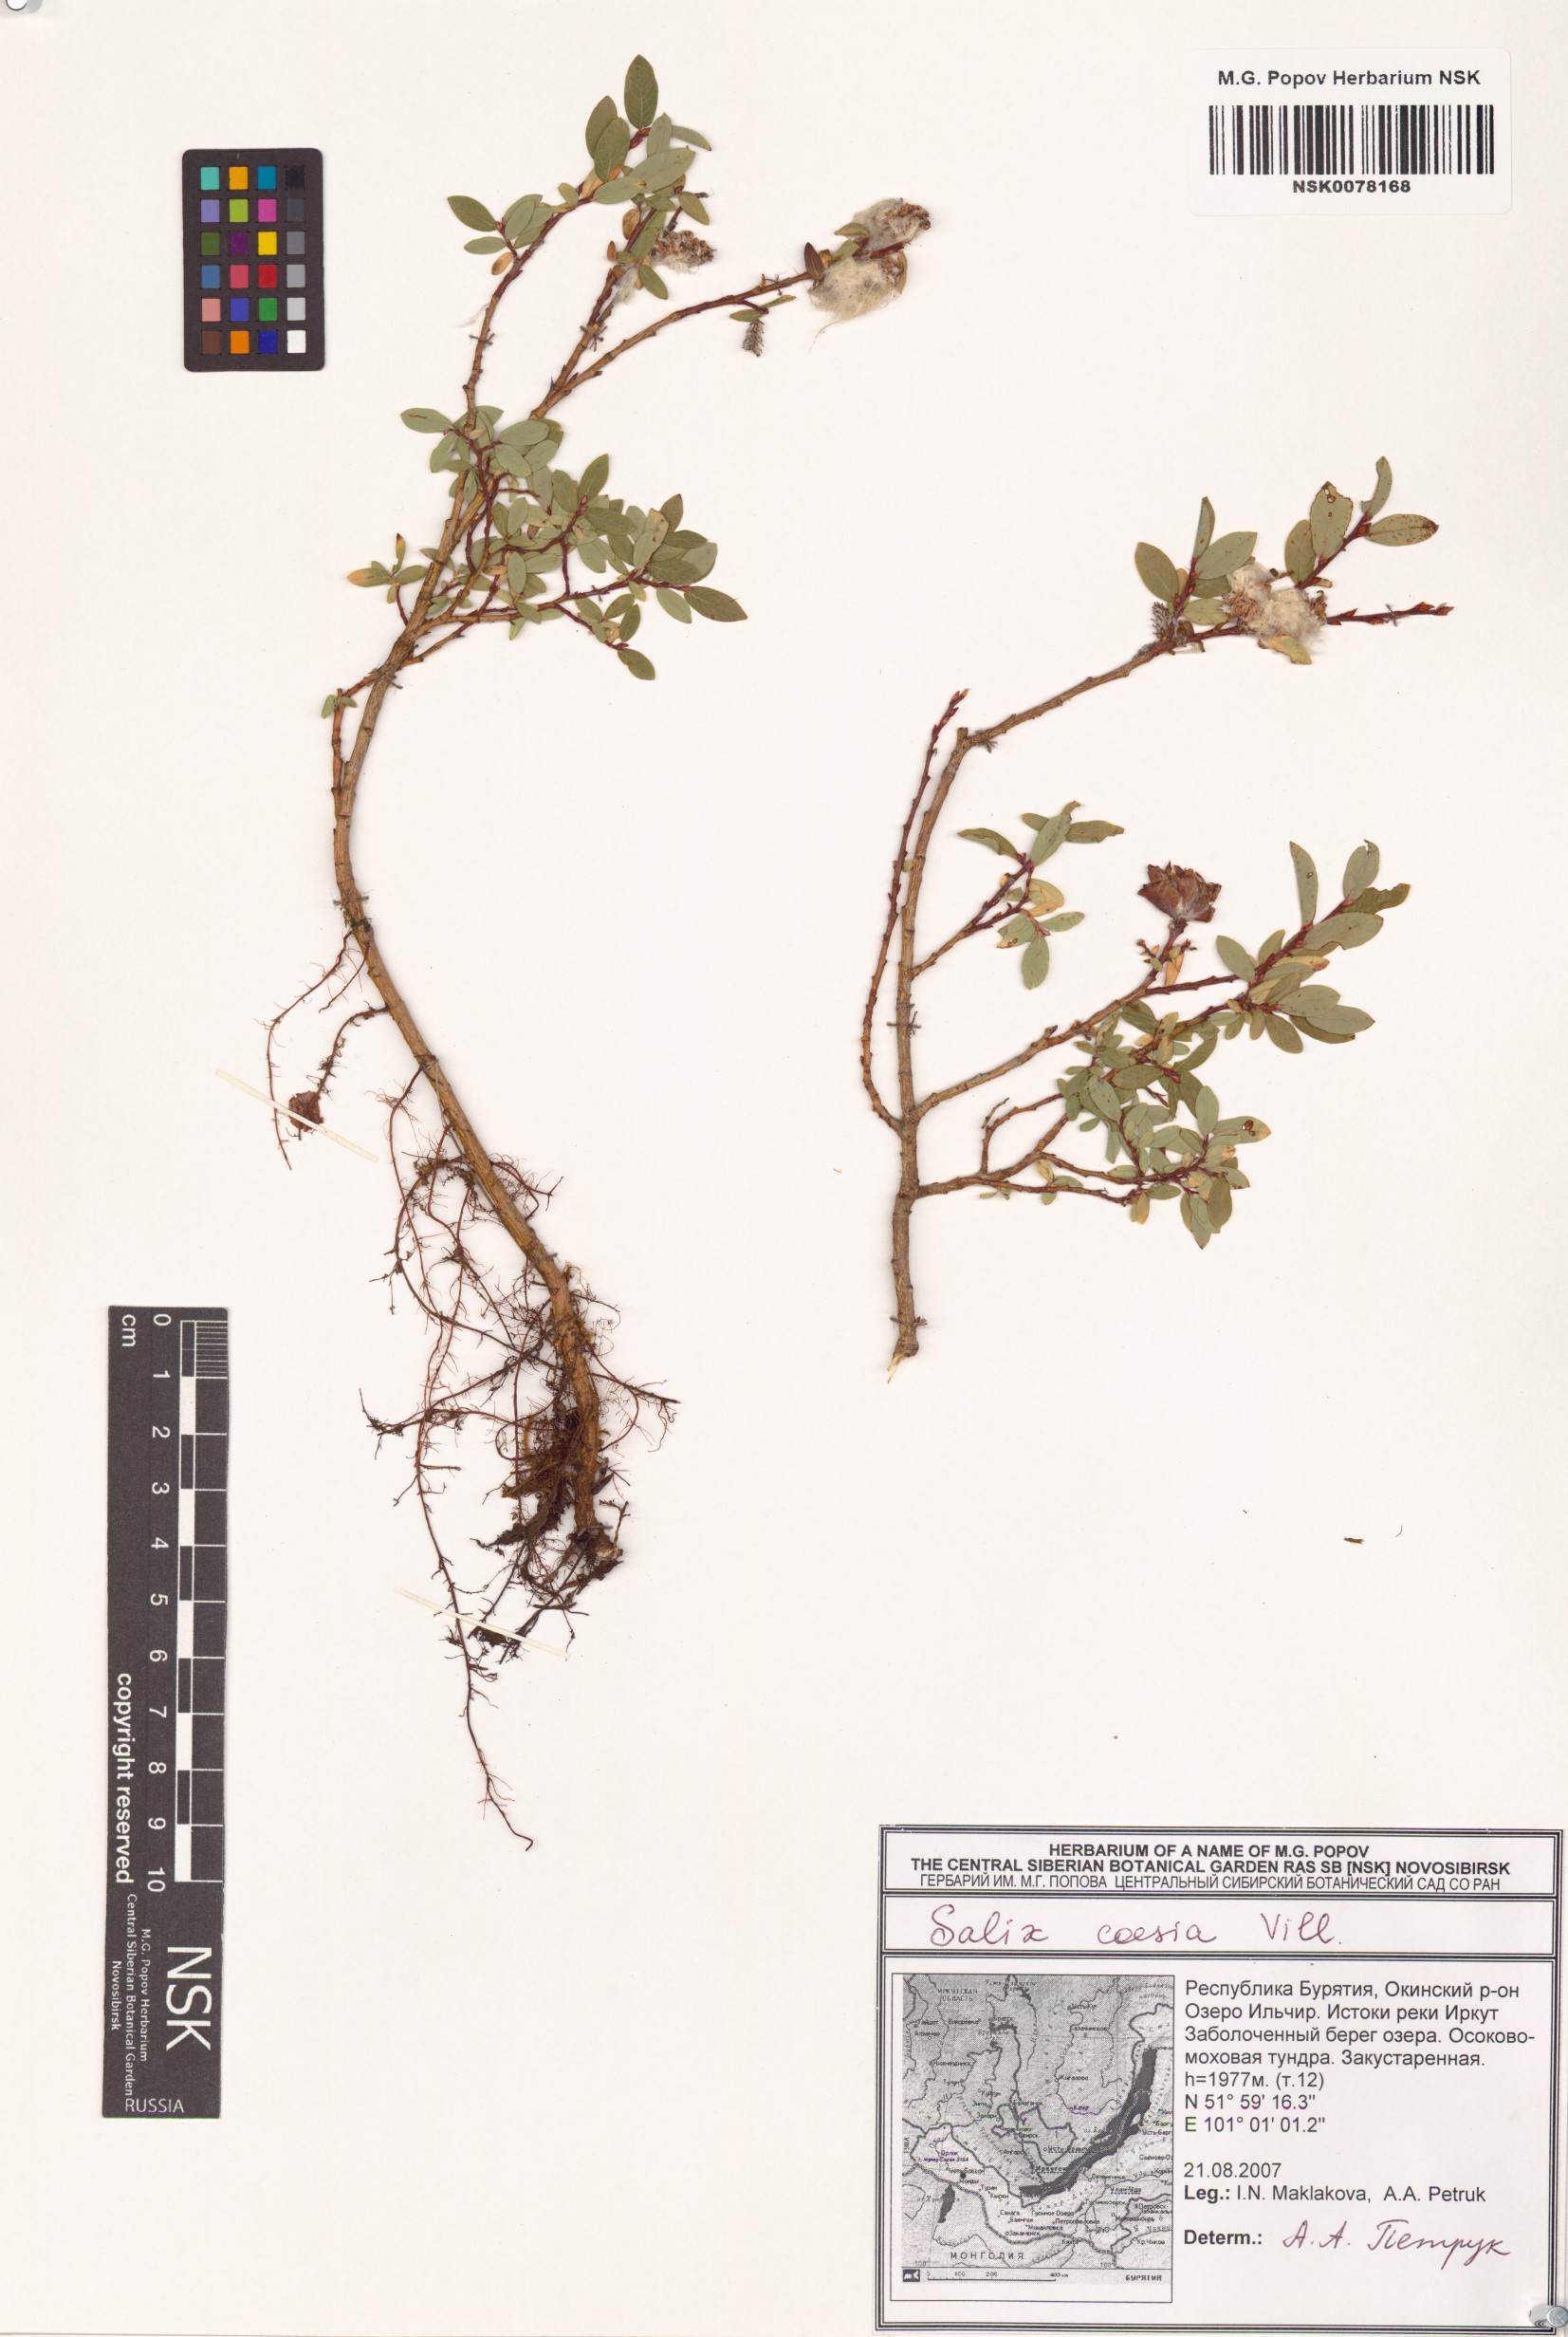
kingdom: Plantae
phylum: Tracheophyta
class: Magnoliopsida
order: Malpighiales
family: Salicaceae
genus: Salix
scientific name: Salix caesia
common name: Blue willow
